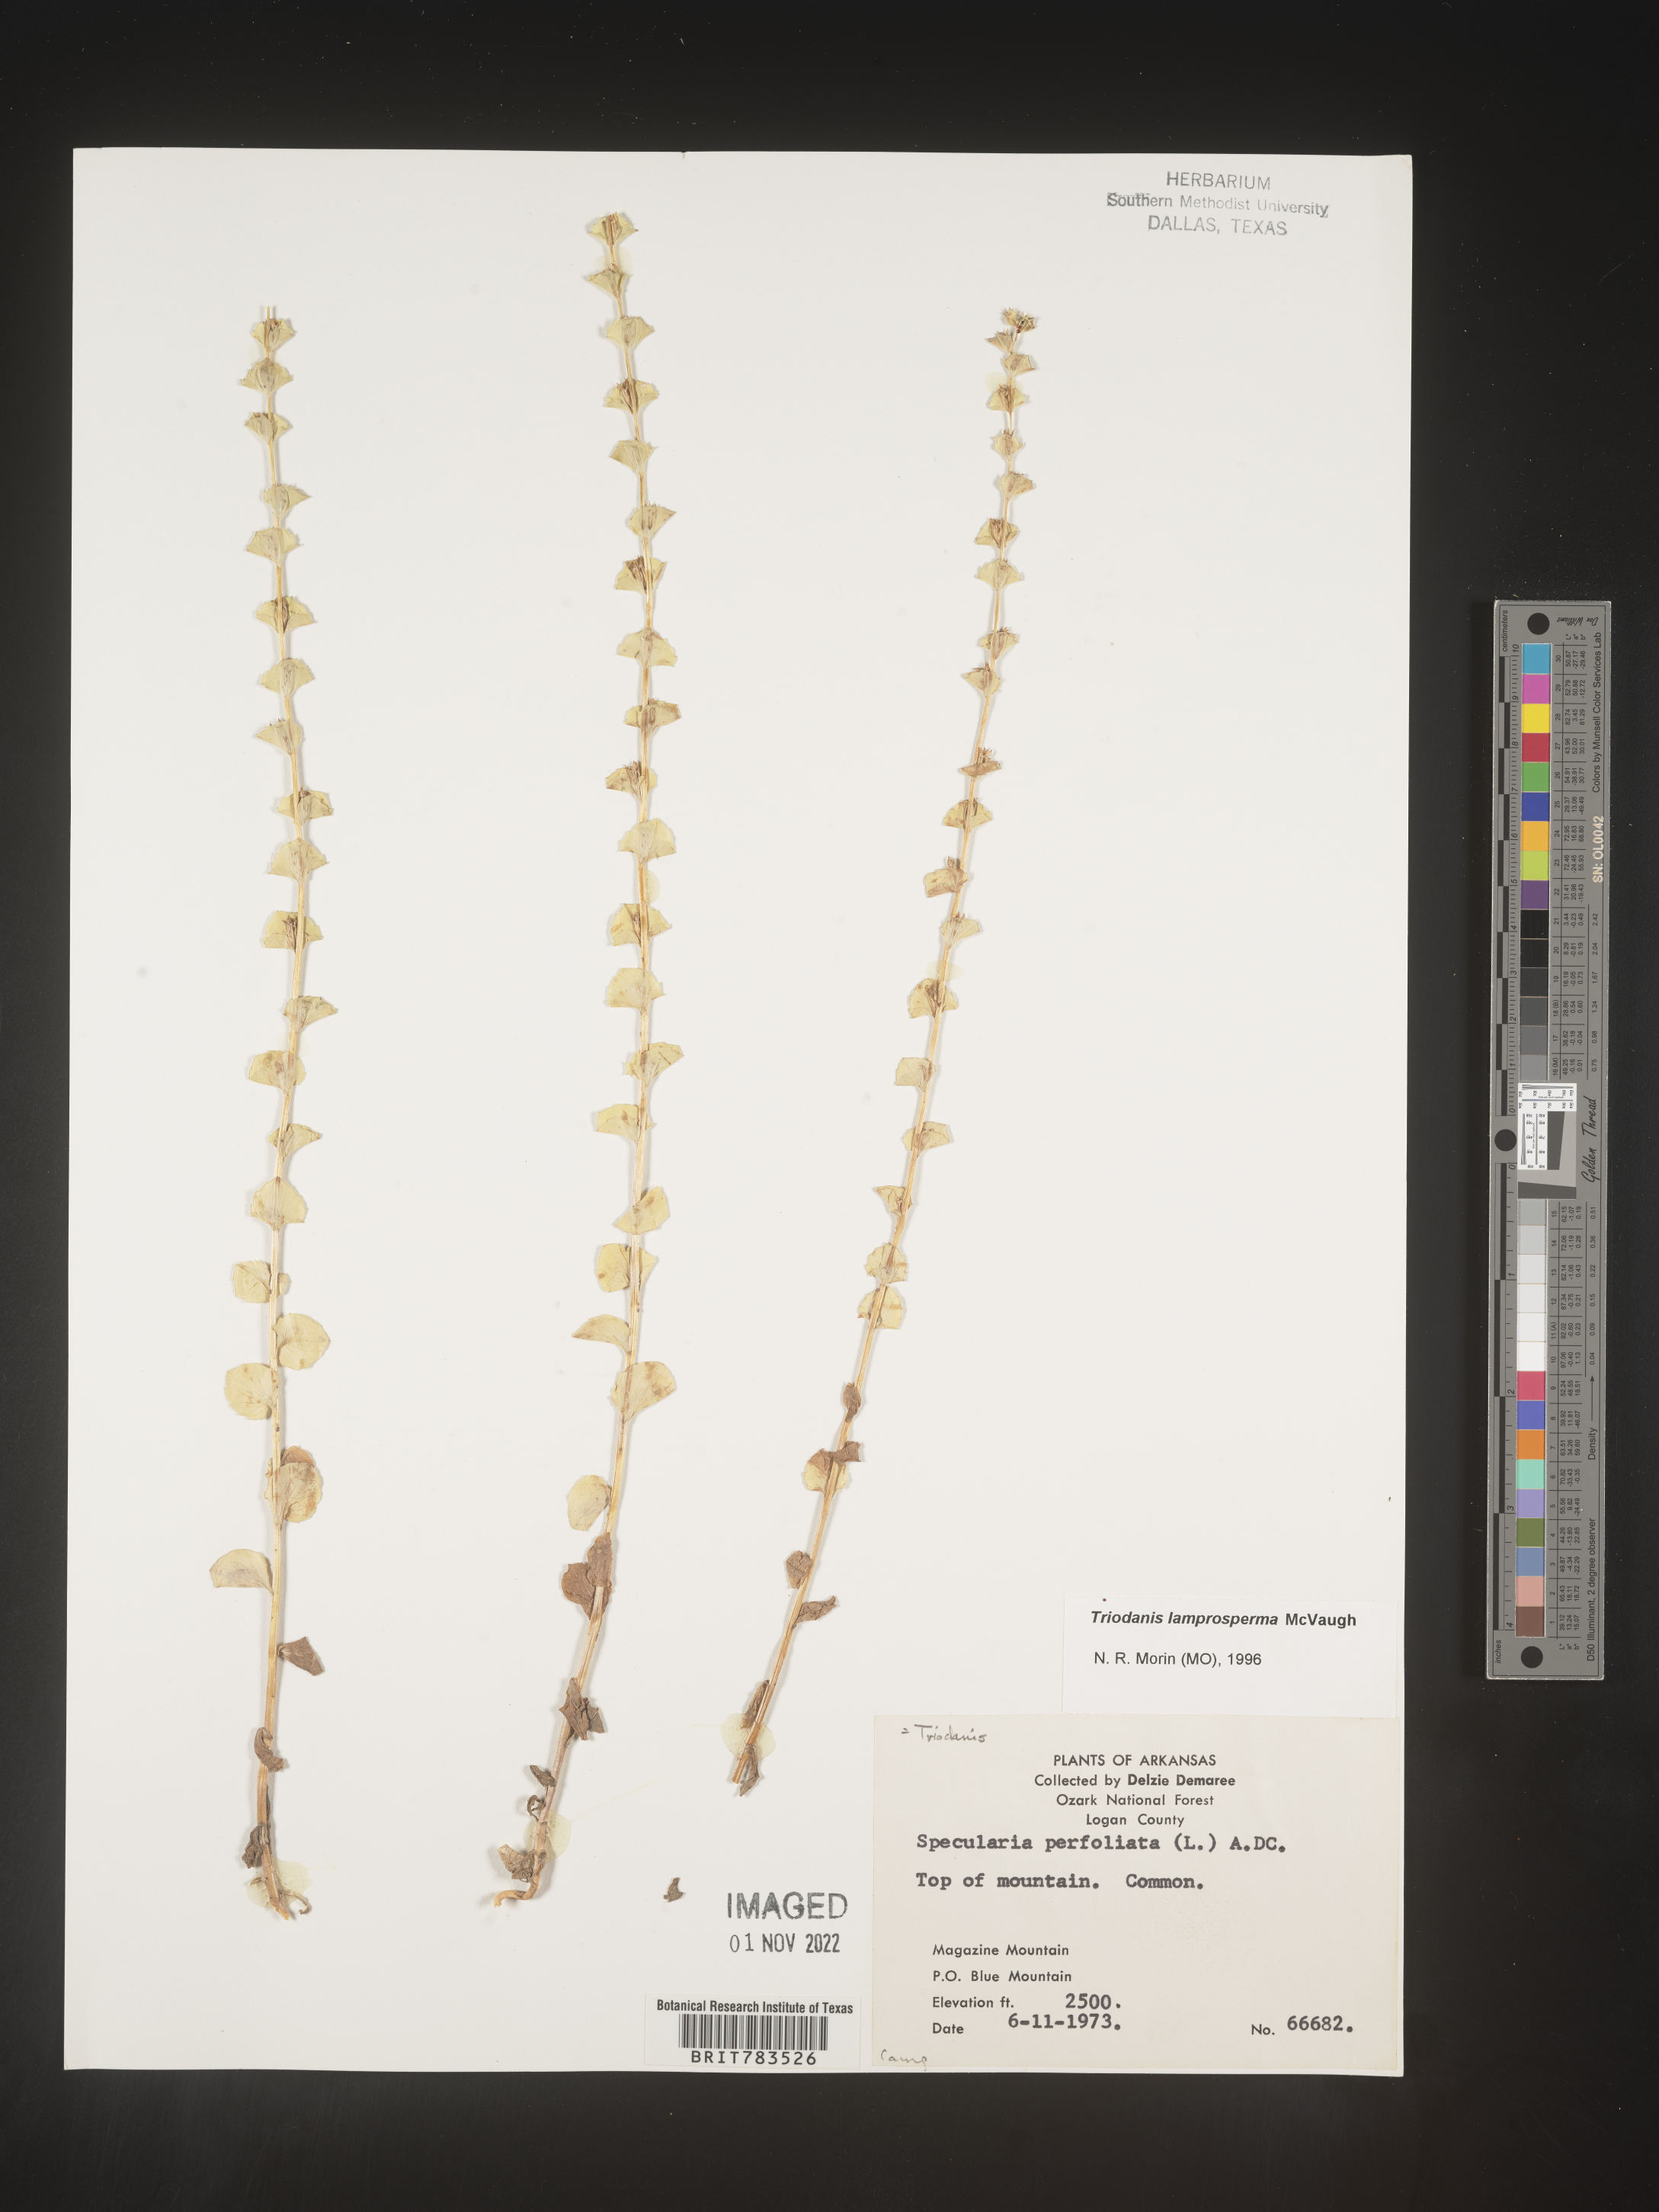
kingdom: Plantae
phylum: Tracheophyta
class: Magnoliopsida
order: Asterales
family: Campanulaceae
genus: Triodanis
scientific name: Triodanis lamprosperma
